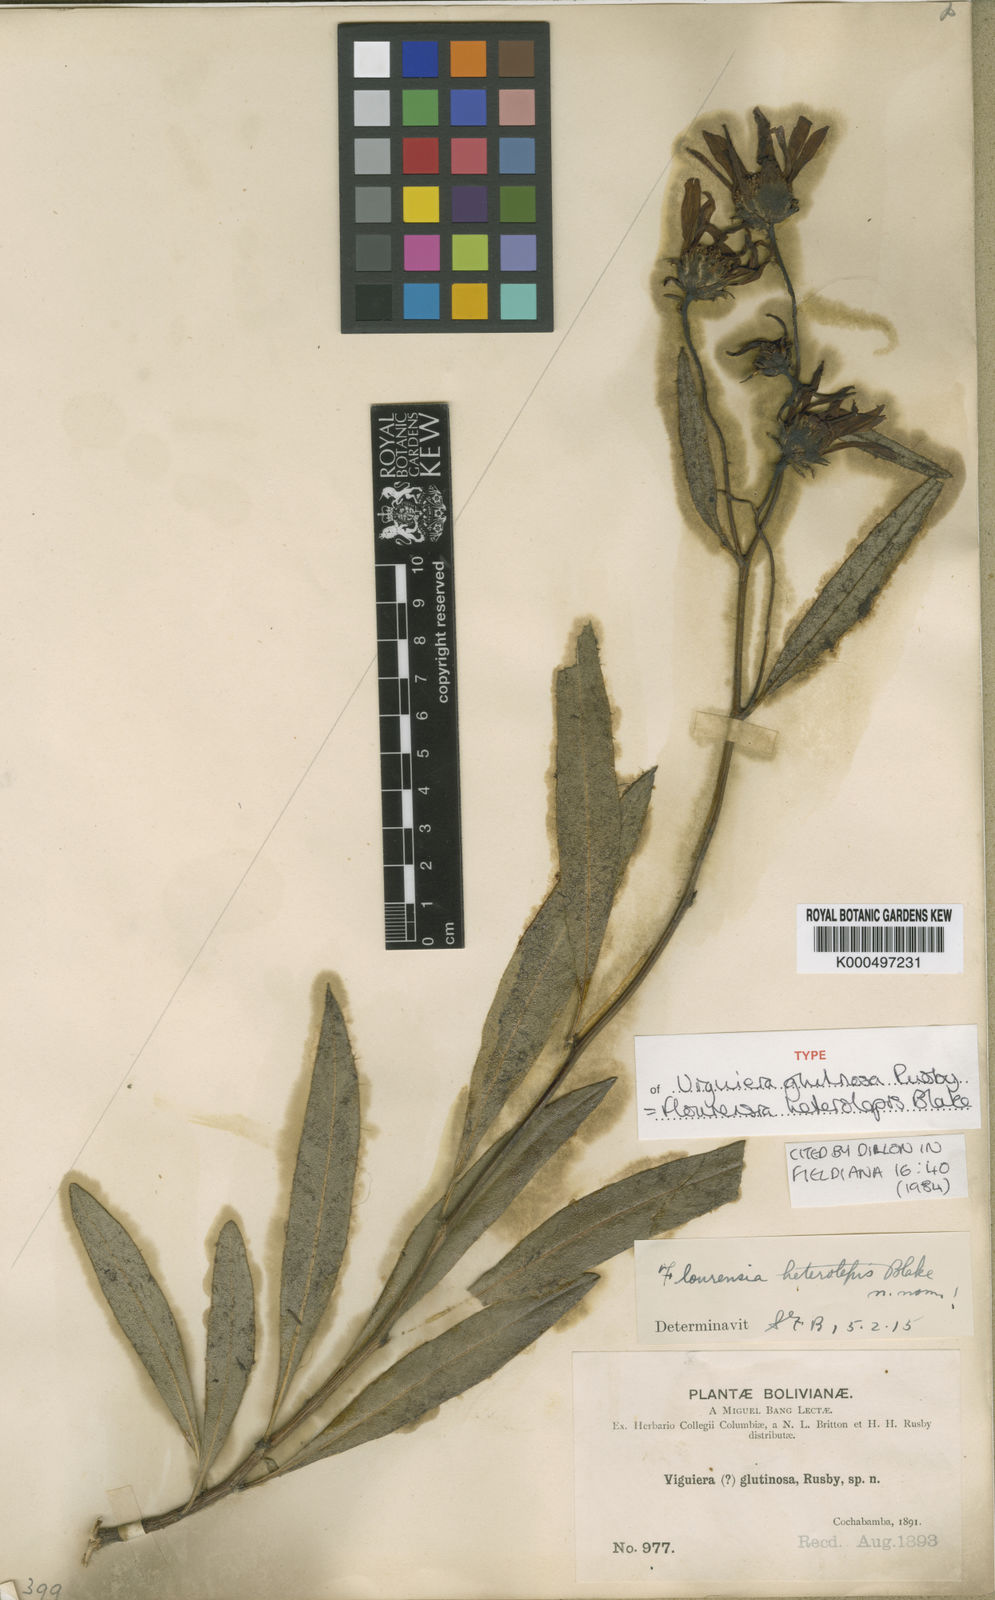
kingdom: Plantae
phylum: Tracheophyta
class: Magnoliopsida
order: Asterales
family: Asteraceae
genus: Flourensia
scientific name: Flourensia heterolepis
